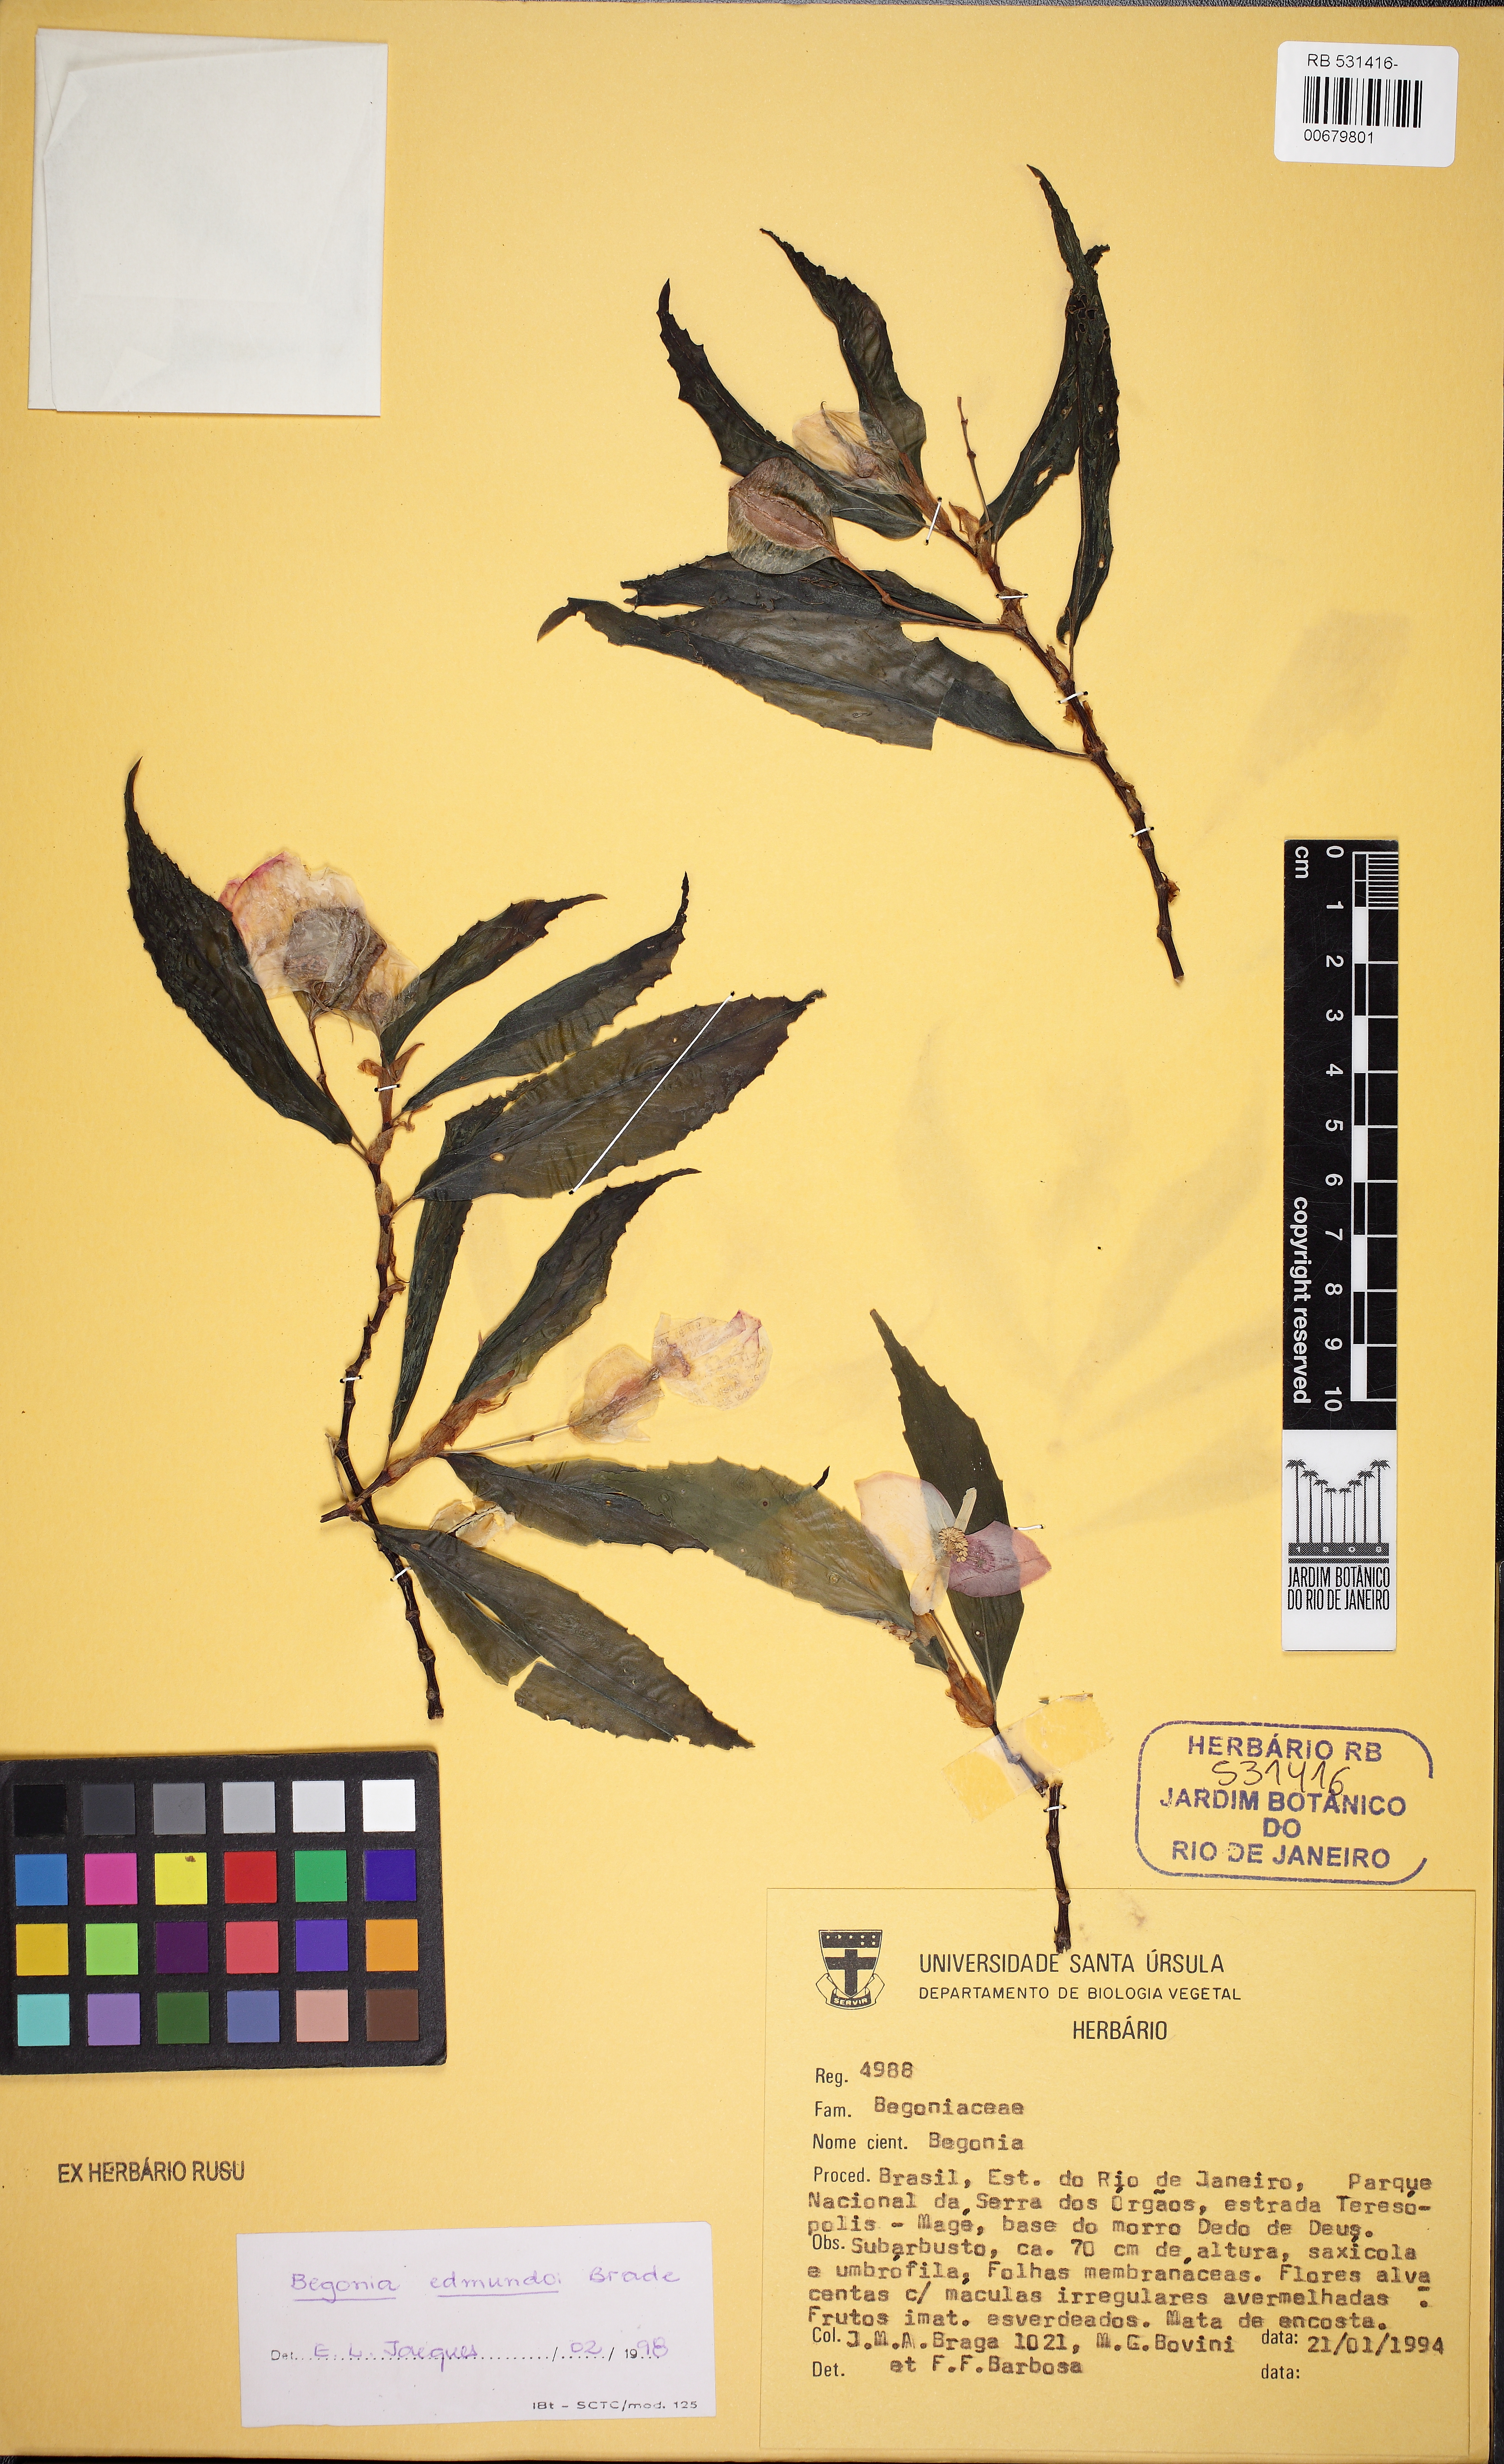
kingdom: Plantae
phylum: Tracheophyta
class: Magnoliopsida
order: Cucurbitales
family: Begoniaceae
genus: Begonia
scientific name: Begonia kunthiana
